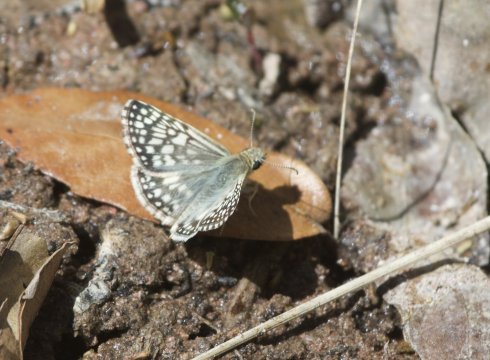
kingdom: Animalia
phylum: Arthropoda
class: Insecta
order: Lepidoptera
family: Hesperiidae
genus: Pyrgus
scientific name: Pyrgus oileus
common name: Desert Checkered-Skipper
